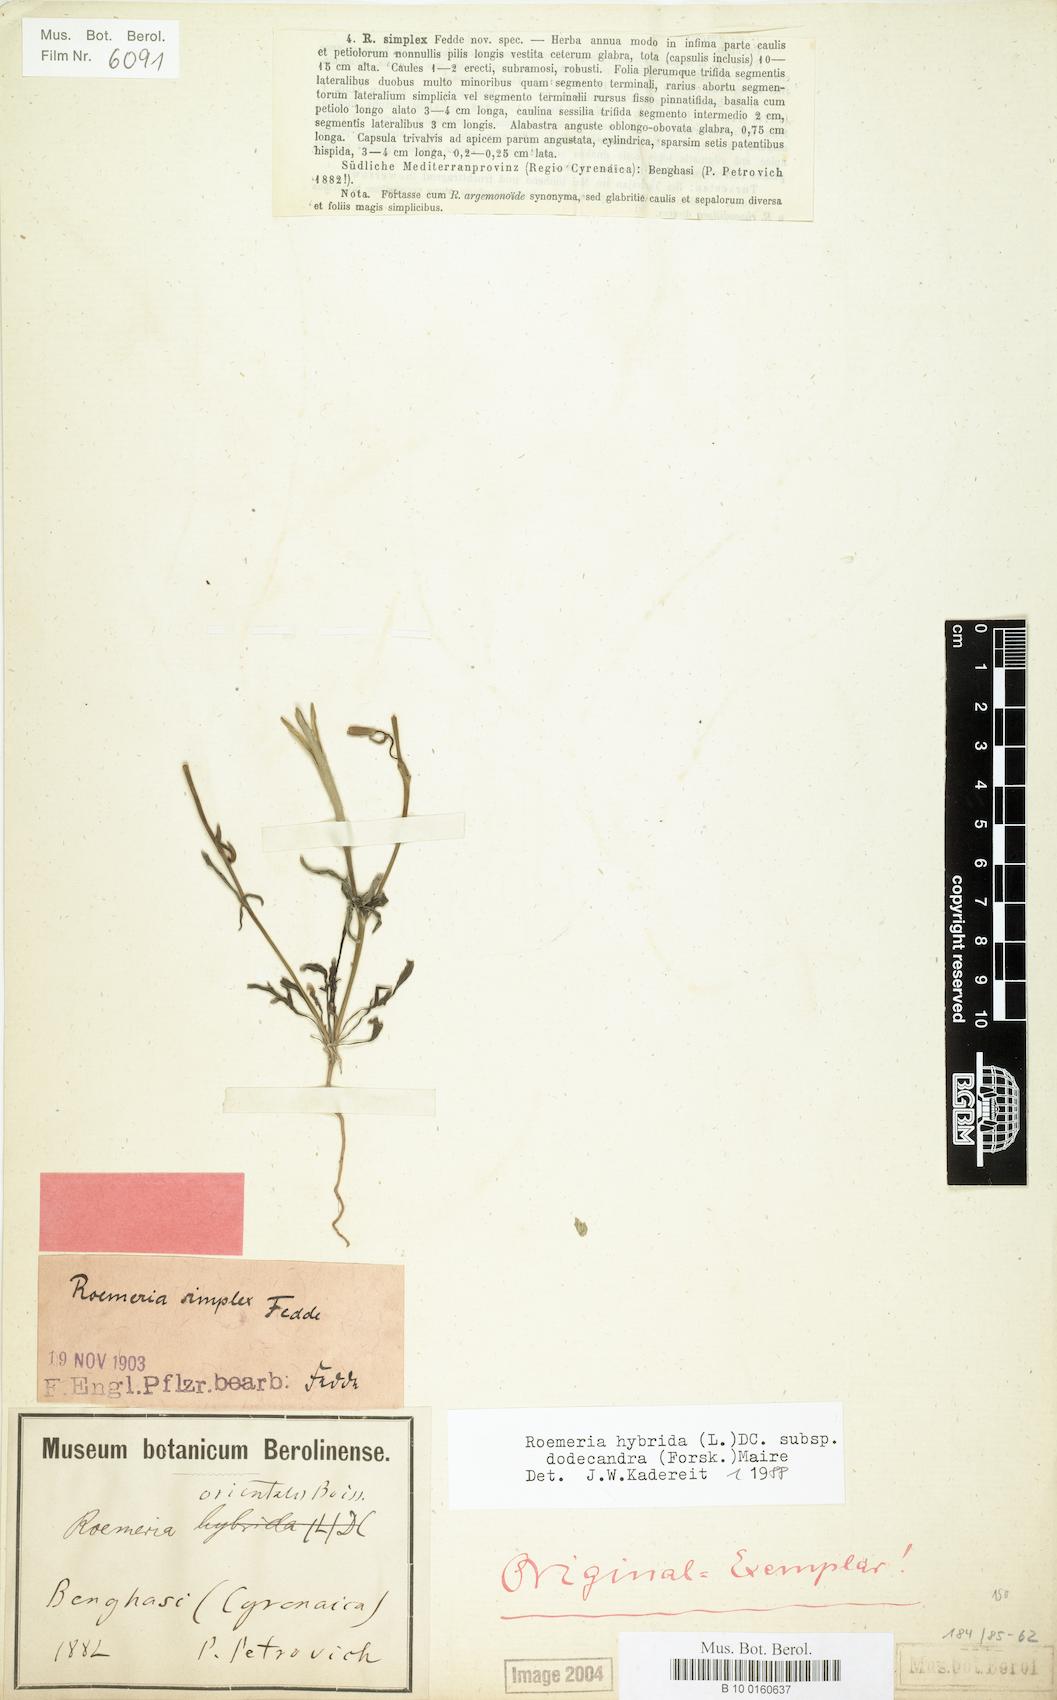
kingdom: Plantae
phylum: Tracheophyta
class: Magnoliopsida
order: Ranunculales
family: Papaveraceae
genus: Roemeria
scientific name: Roemeria hybrida
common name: Violet horned-poppy
